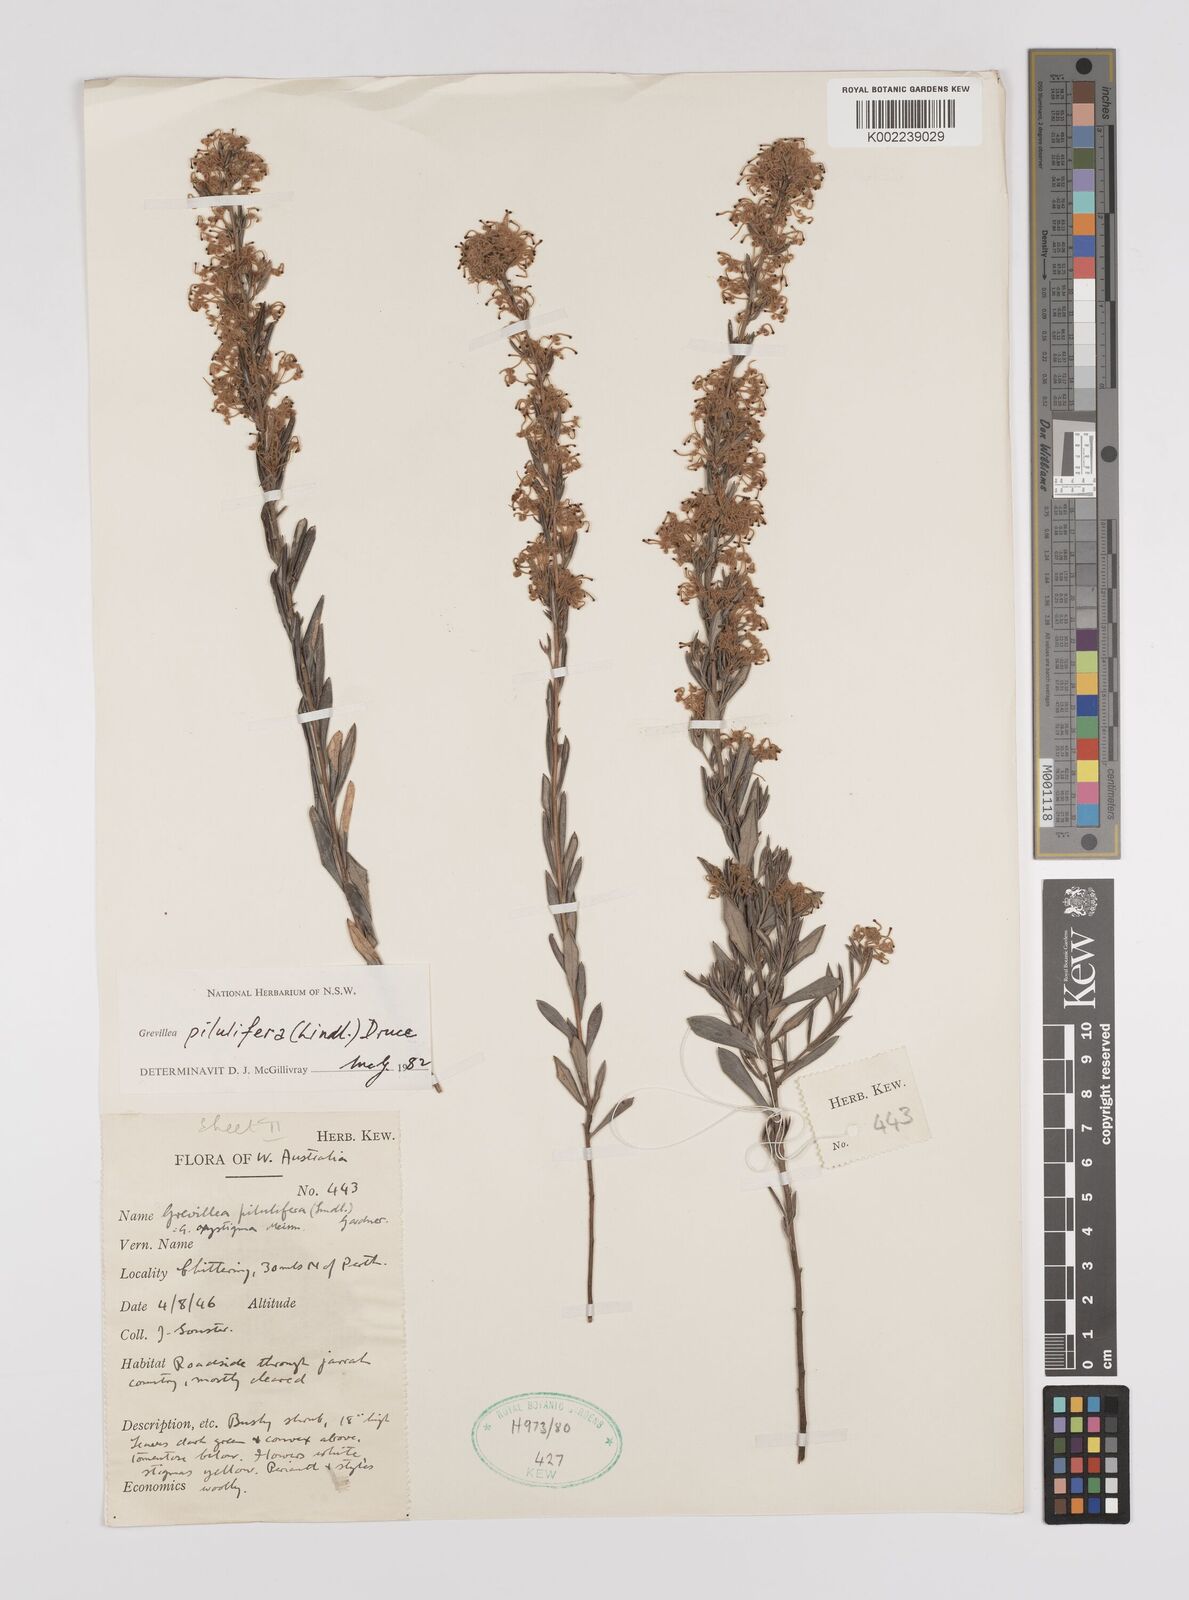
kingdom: Plantae
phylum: Tracheophyta
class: Magnoliopsida
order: Proteales
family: Proteaceae
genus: Grevillea
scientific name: Grevillea pilulifera
